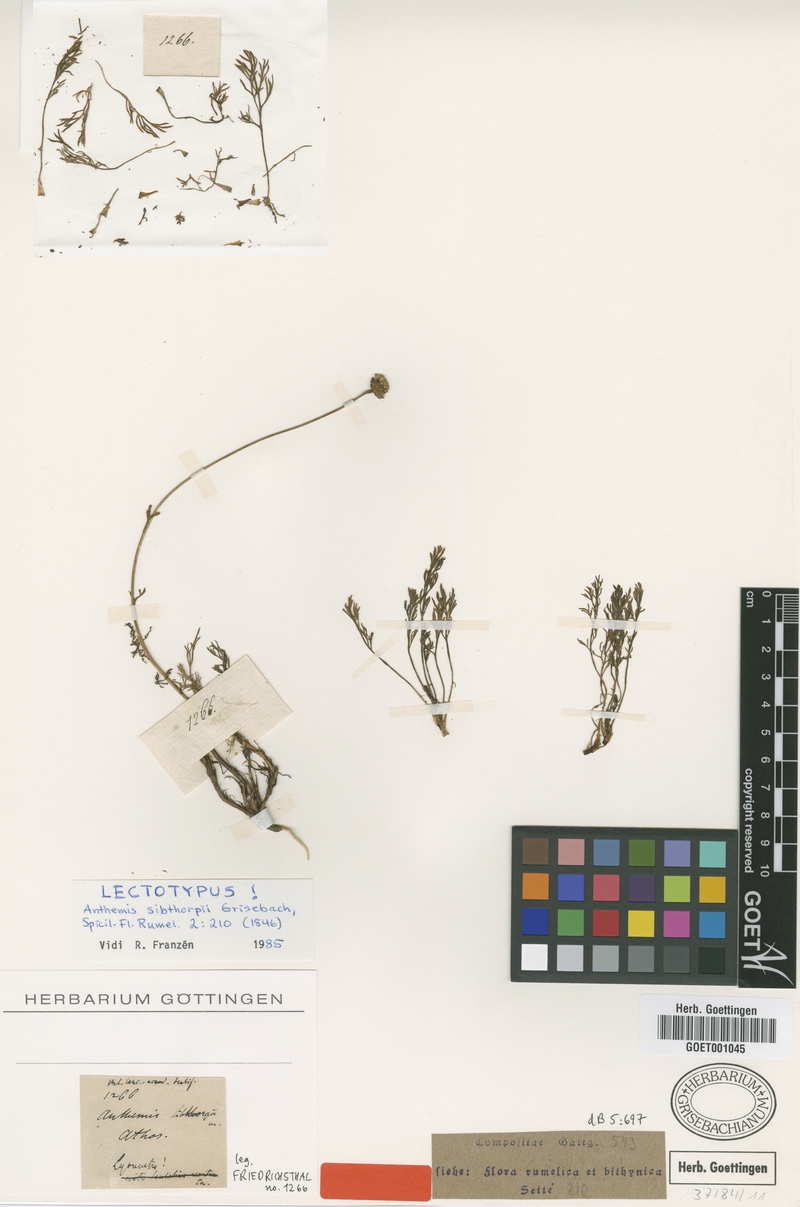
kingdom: Plantae
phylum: Tracheophyta
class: Magnoliopsida
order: Asterales
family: Asteraceae
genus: Anthemis
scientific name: Anthemis sibthorpii
